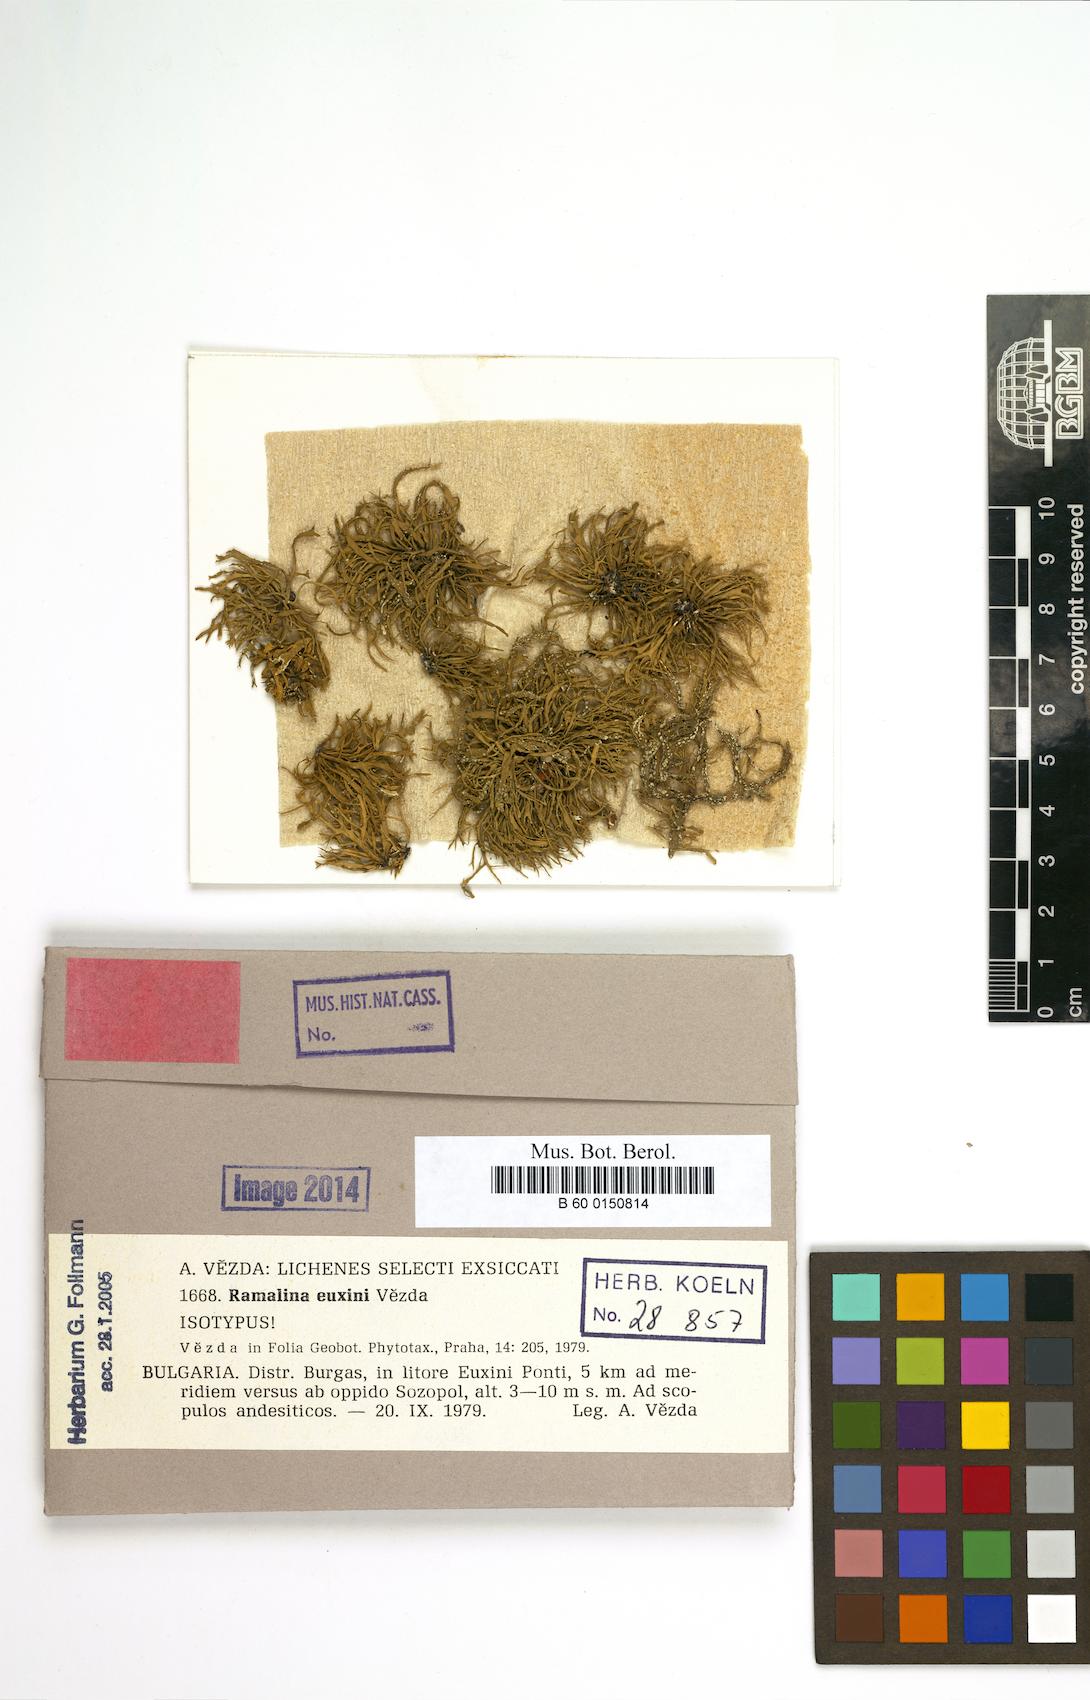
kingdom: Fungi
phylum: Ascomycota
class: Lecanoromycetes
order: Lecanorales
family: Ramalinaceae
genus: Ramalina
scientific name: Ramalina euxini
